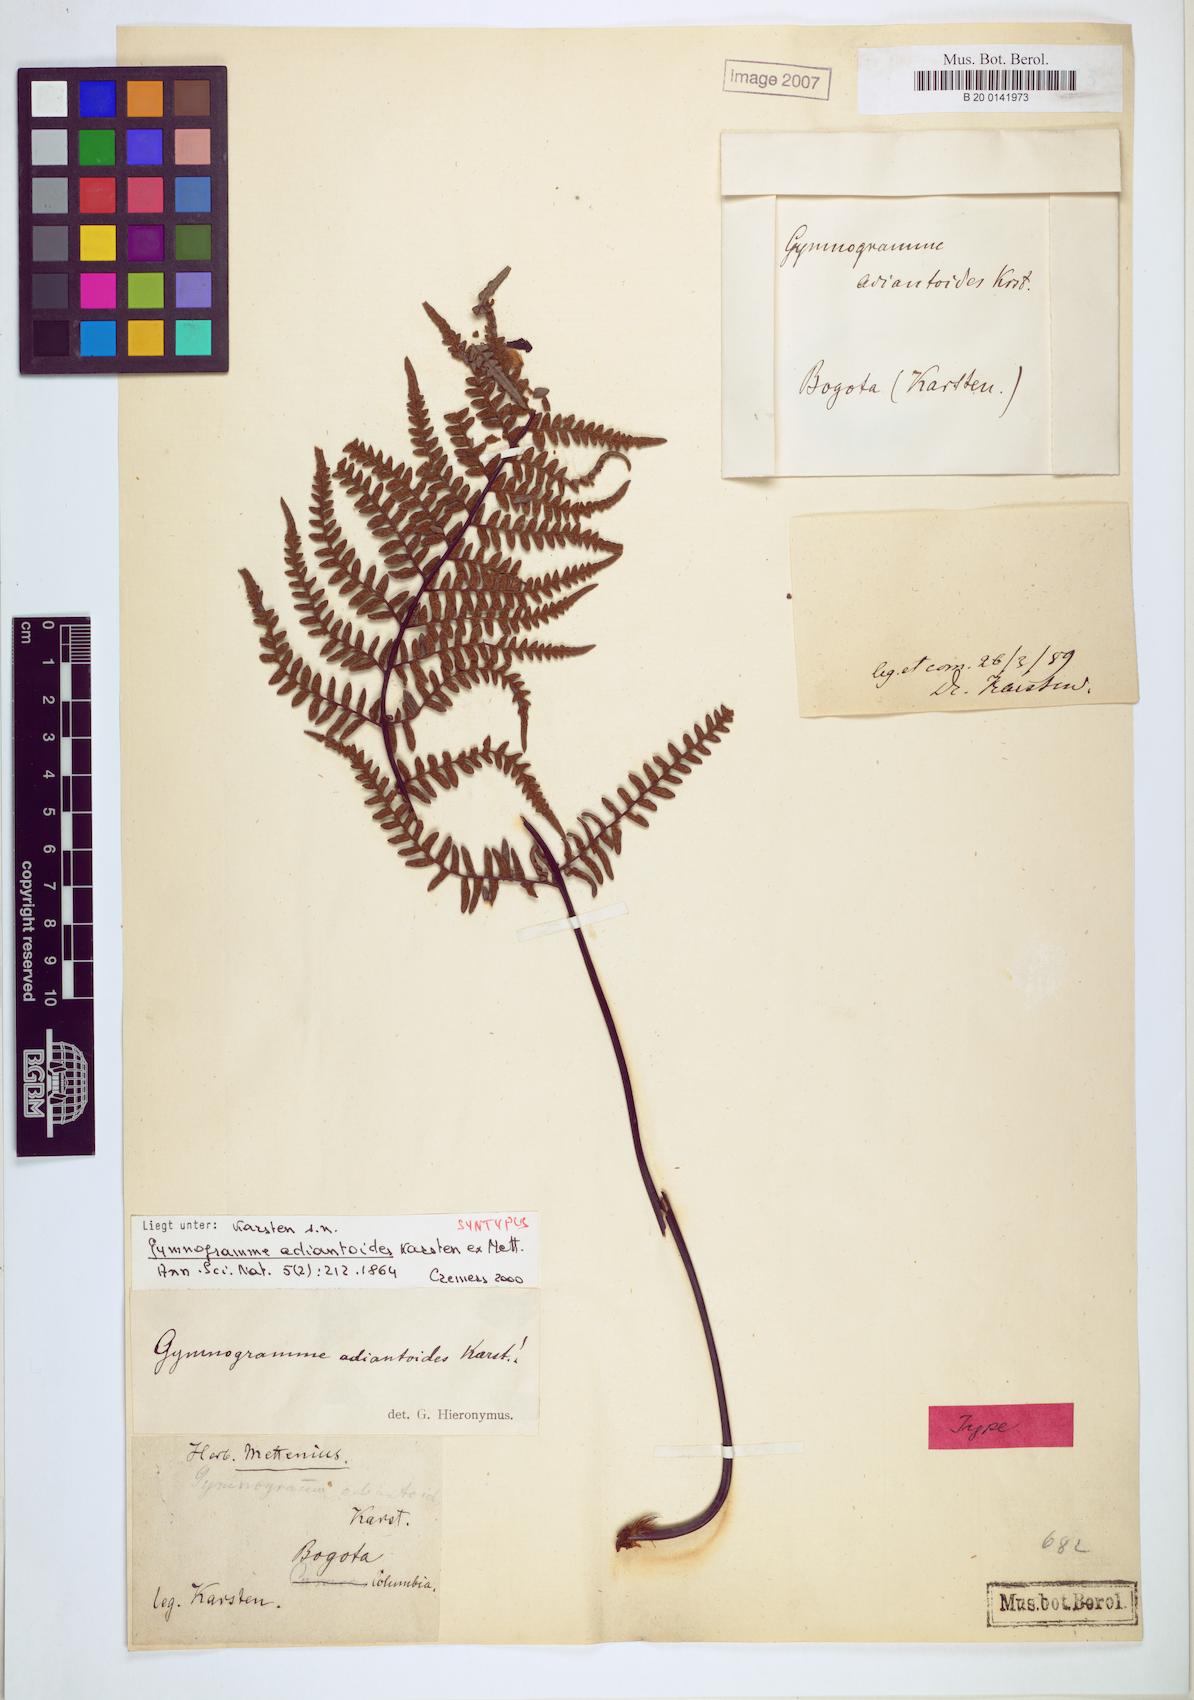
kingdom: Plantae
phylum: Tracheophyta
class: Polypodiopsida
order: Polypodiales
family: Pteridaceae
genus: Pityrogramma
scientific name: Pityrogramma ochracea
